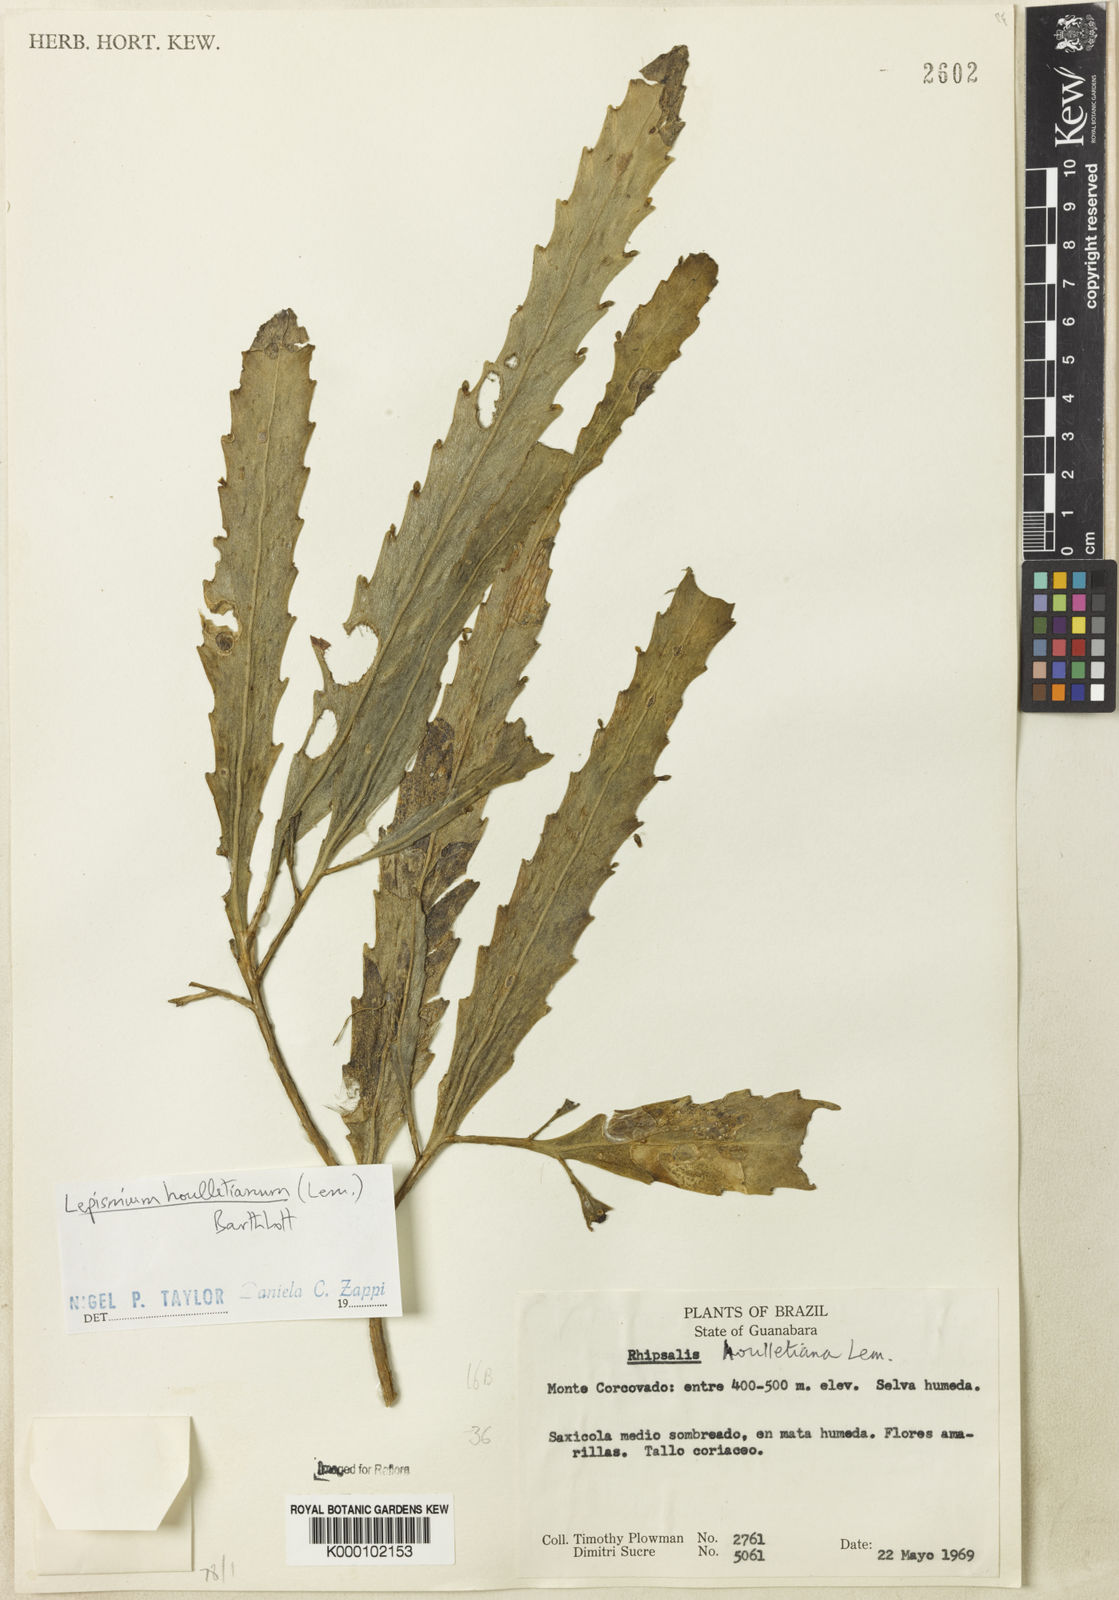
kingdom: Plantae
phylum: Tracheophyta
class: Magnoliopsida
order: Caryophyllales
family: Cactaceae
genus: Lepismium
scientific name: Lepismium houlletianum
